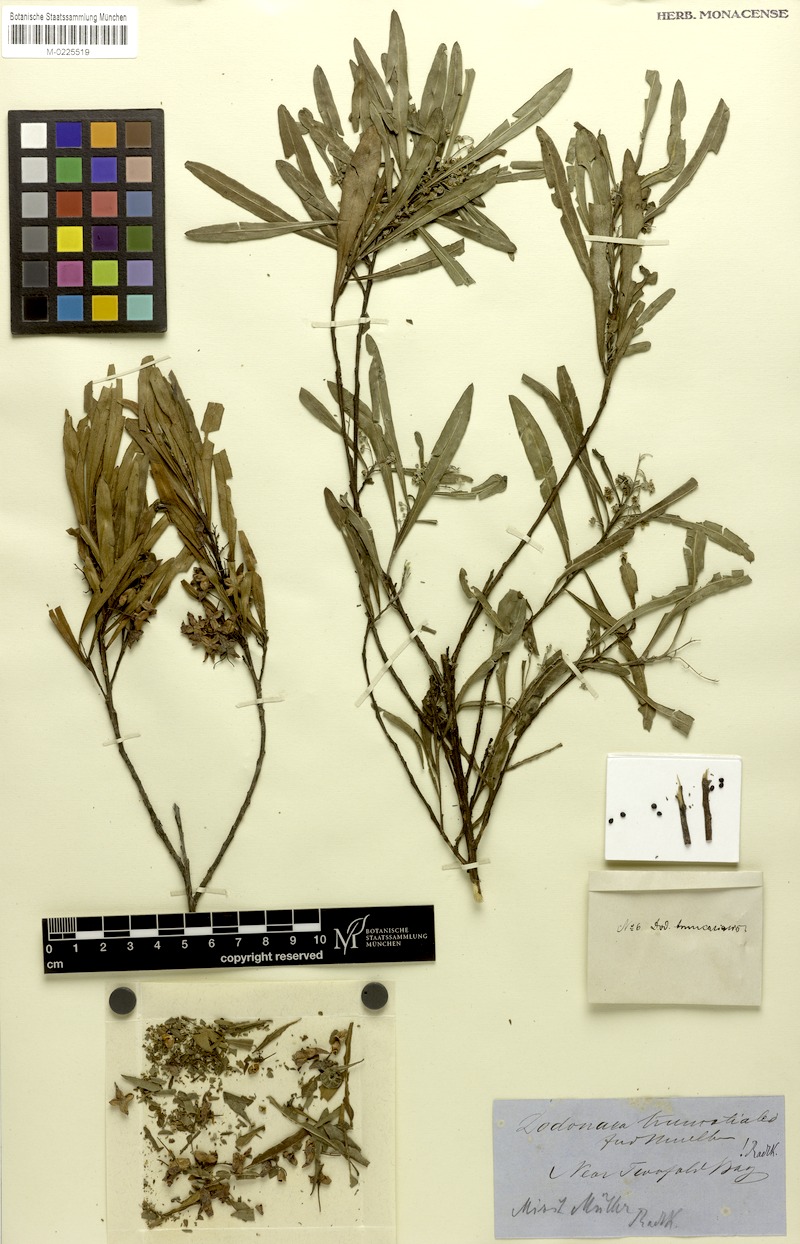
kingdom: Plantae
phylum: Tracheophyta
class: Magnoliopsida
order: Sapindales
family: Sapindaceae
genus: Dodonaea
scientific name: Dodonaea truncatialis
